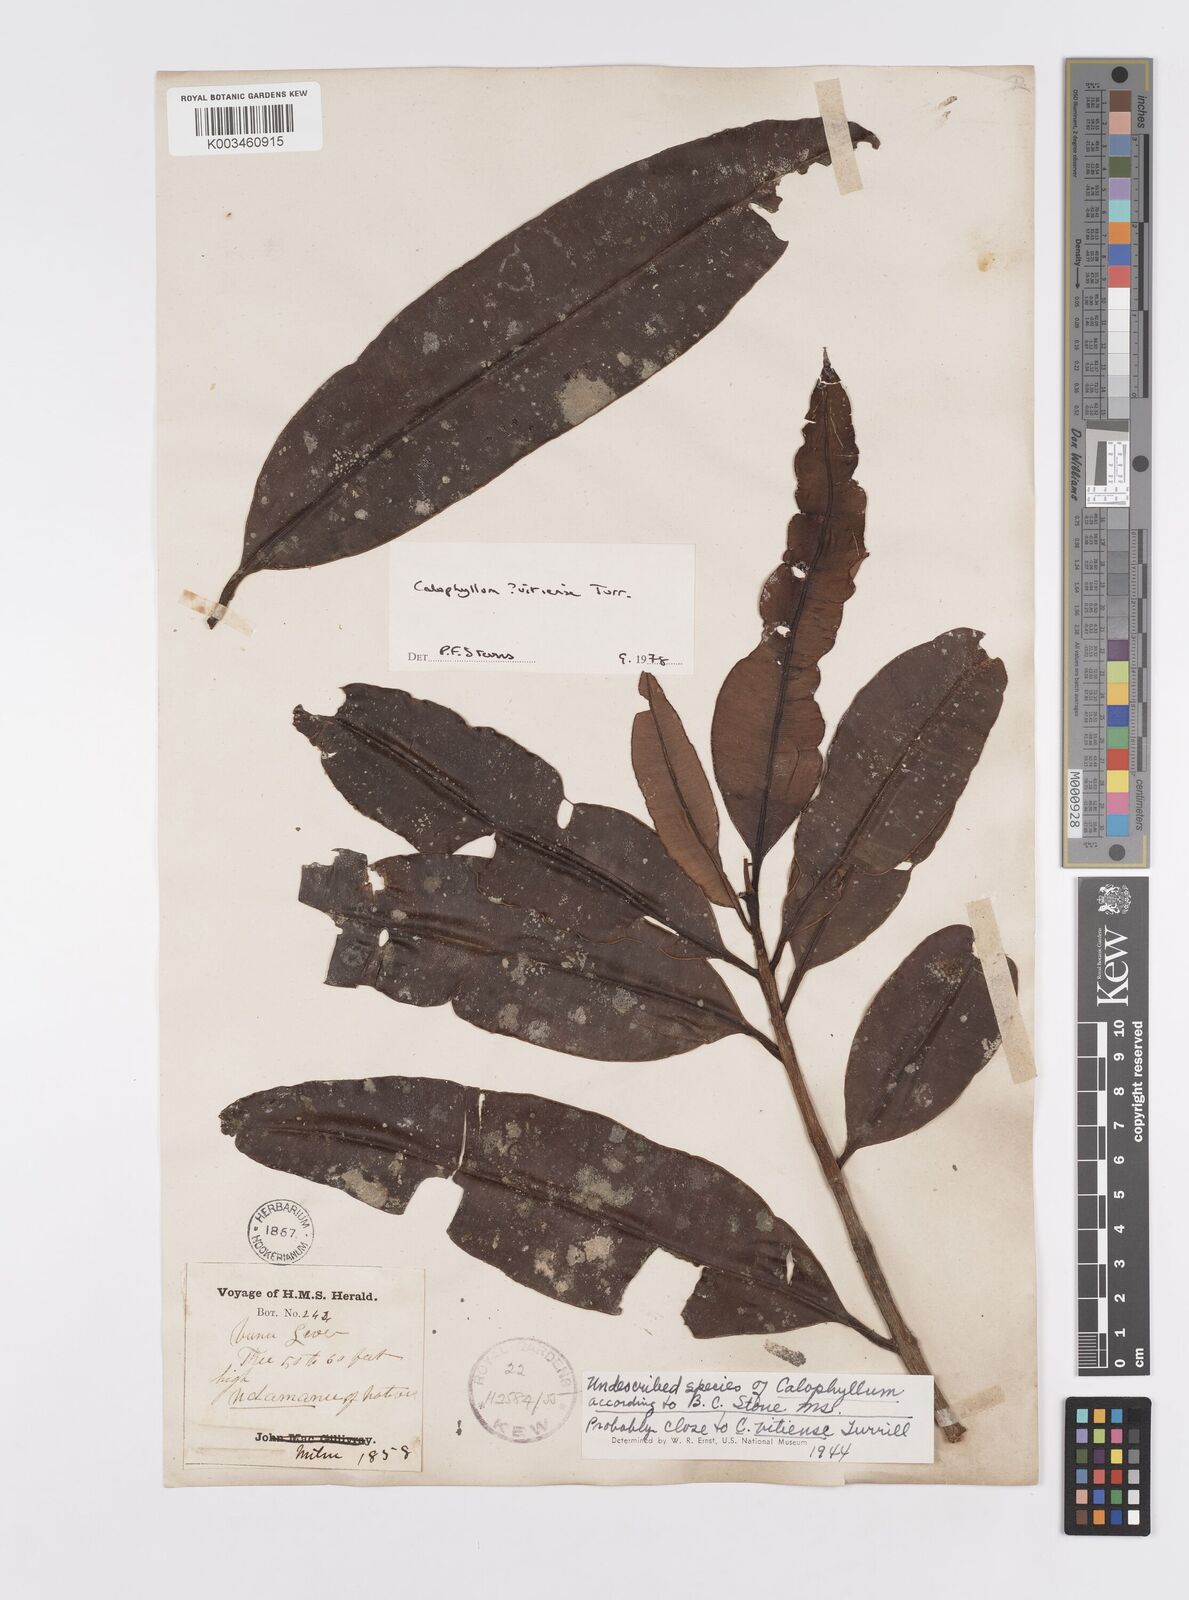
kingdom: Plantae
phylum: Tracheophyta
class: Magnoliopsida
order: Malpighiales
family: Calophyllaceae
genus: Calophyllum
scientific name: Calophyllum
